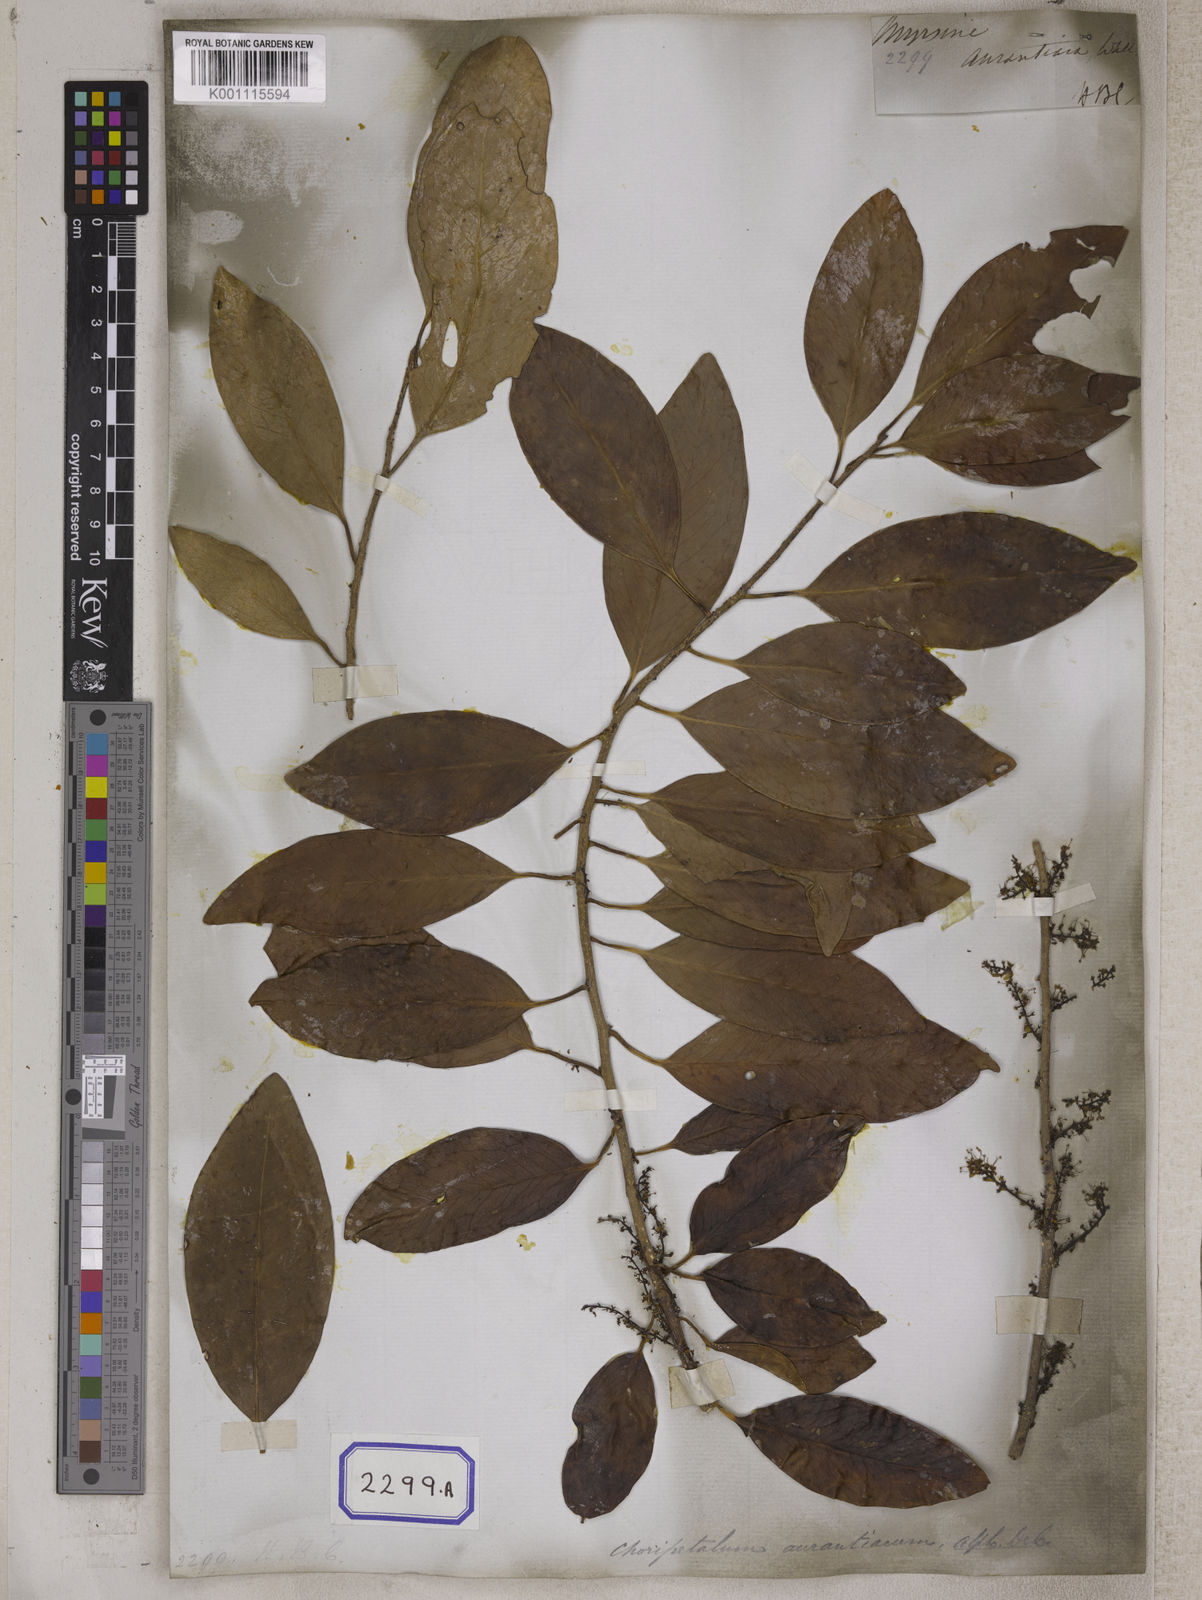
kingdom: Plantae
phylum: Tracheophyta
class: Magnoliopsida
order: Ericales
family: Primulaceae
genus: Embelia
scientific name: Embelia drupacea
